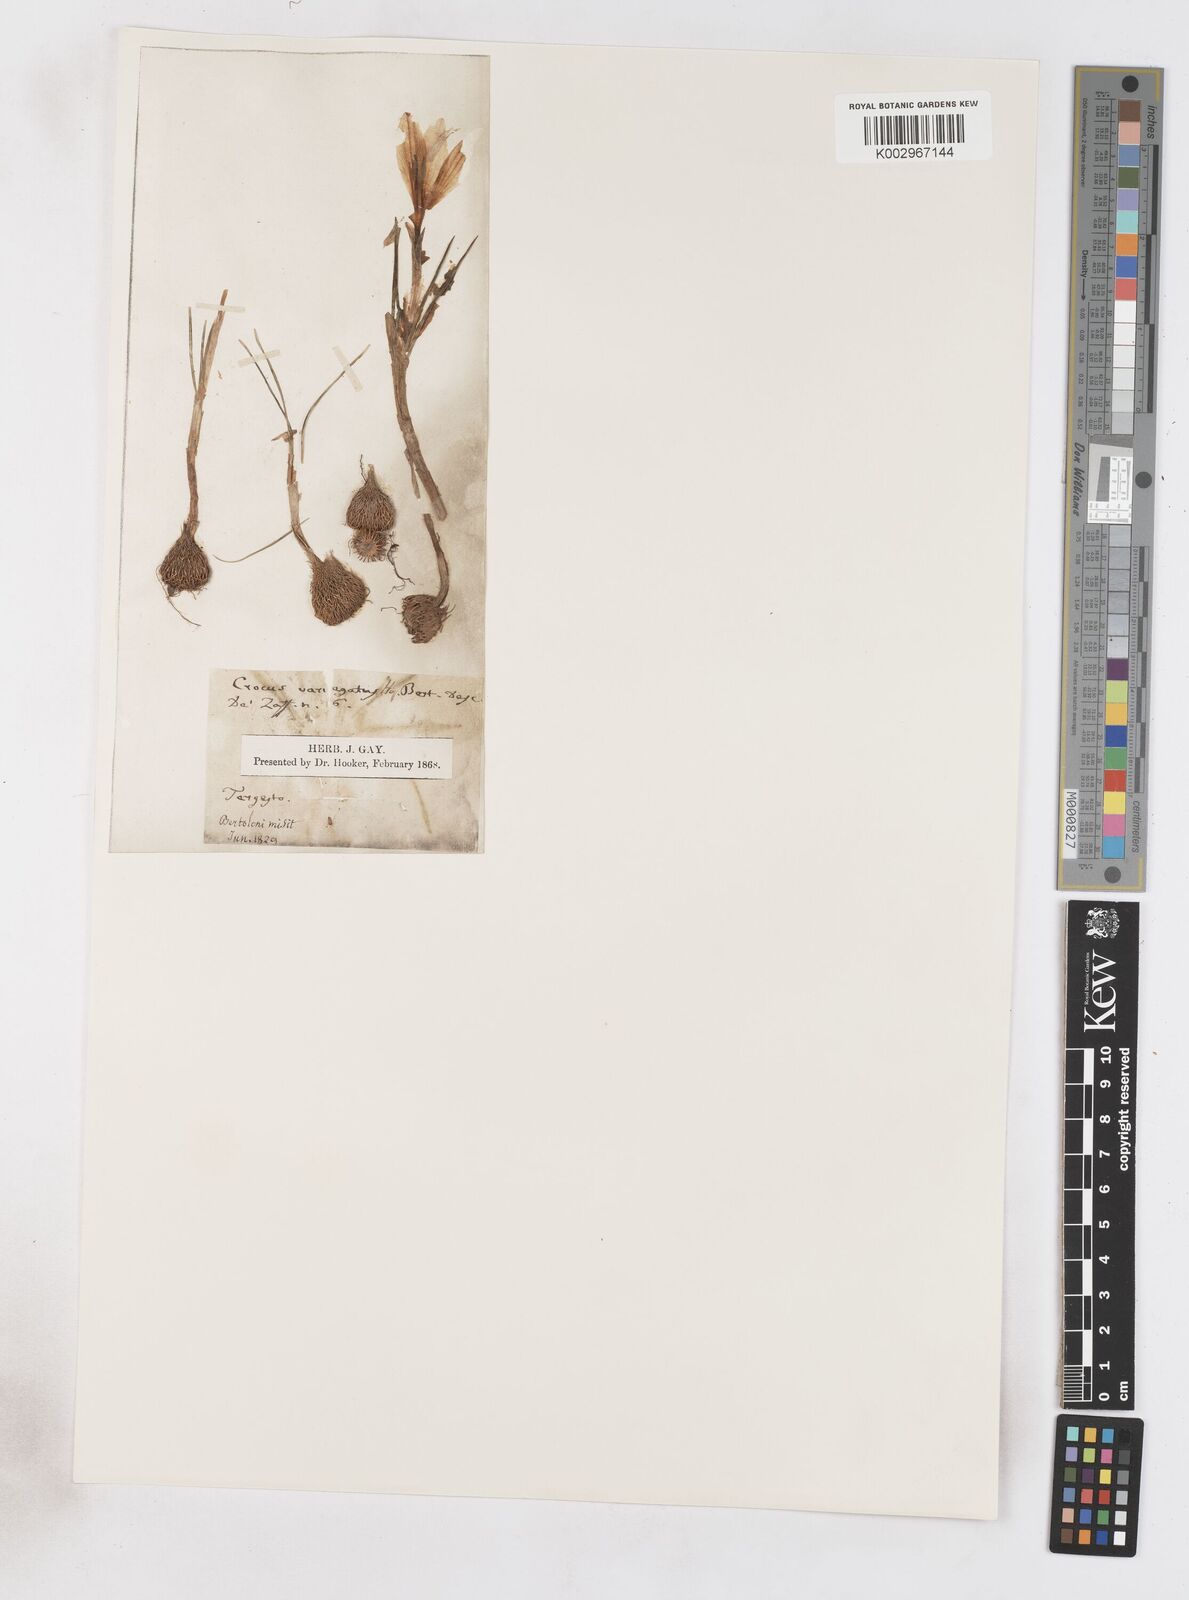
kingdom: Plantae
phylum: Tracheophyta
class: Liliopsida
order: Asparagales
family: Iridaceae
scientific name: Iridaceae
